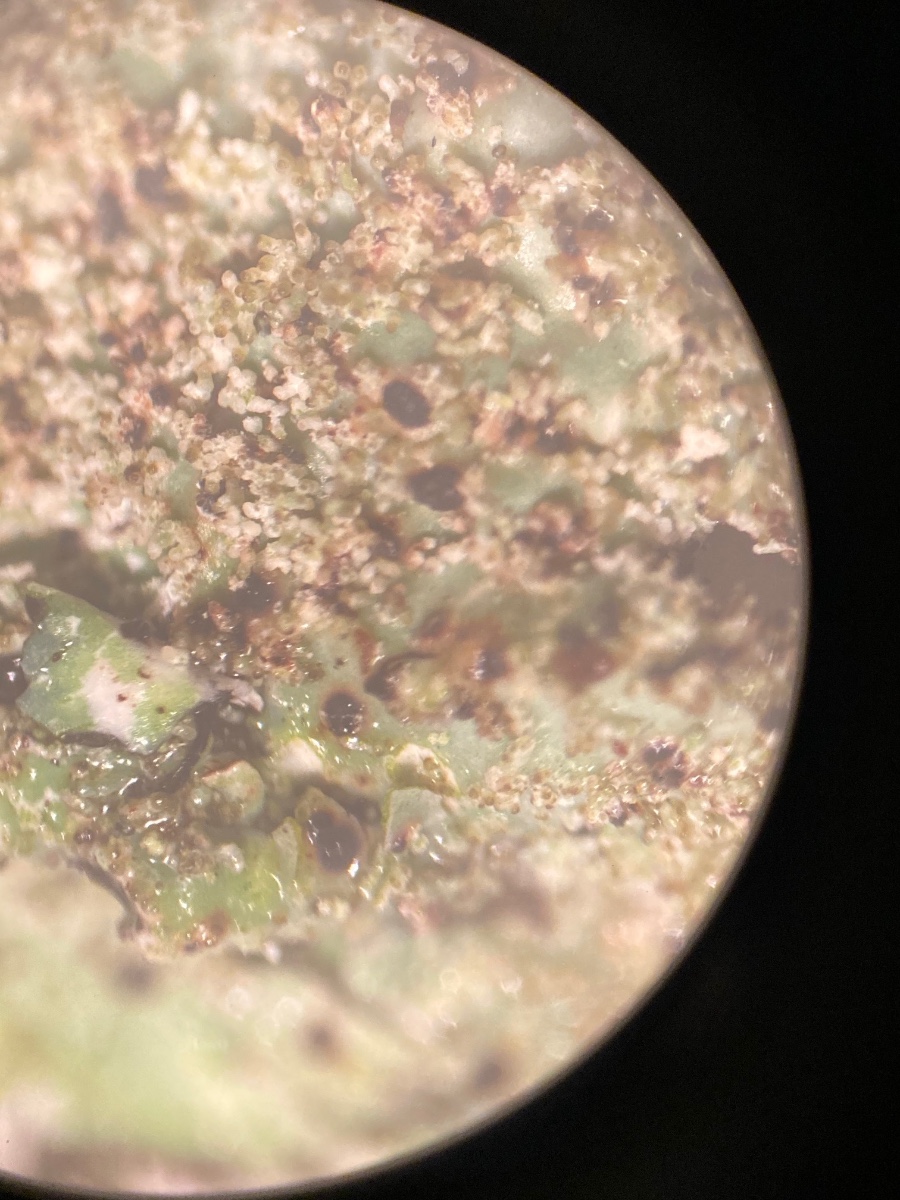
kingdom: Fungi
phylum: Ascomycota
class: Lecanoromycetes
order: Lecanorales
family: Parmeliaceae
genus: Parmelia
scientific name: Parmelia saxatilis
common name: farve-skållav
